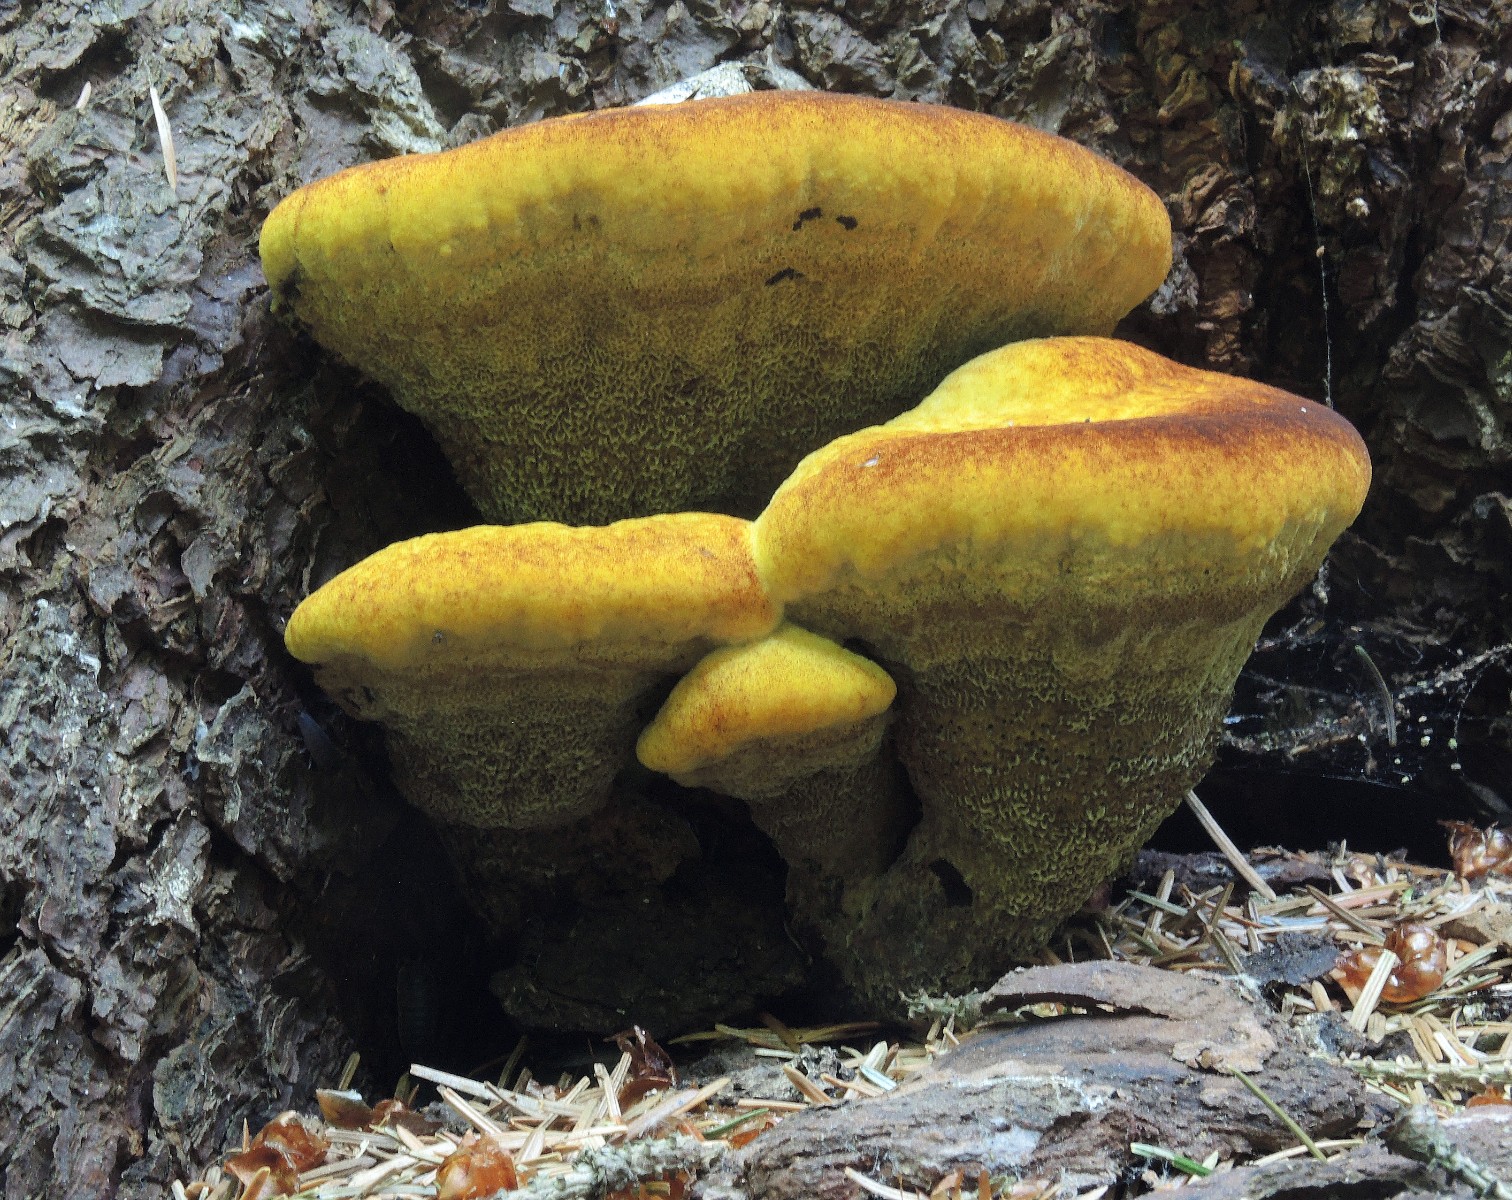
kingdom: Fungi
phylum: Basidiomycota
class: Agaricomycetes
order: Polyporales
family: Laetiporaceae
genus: Phaeolus
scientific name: Phaeolus schweinitzii
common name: brunporesvamp
